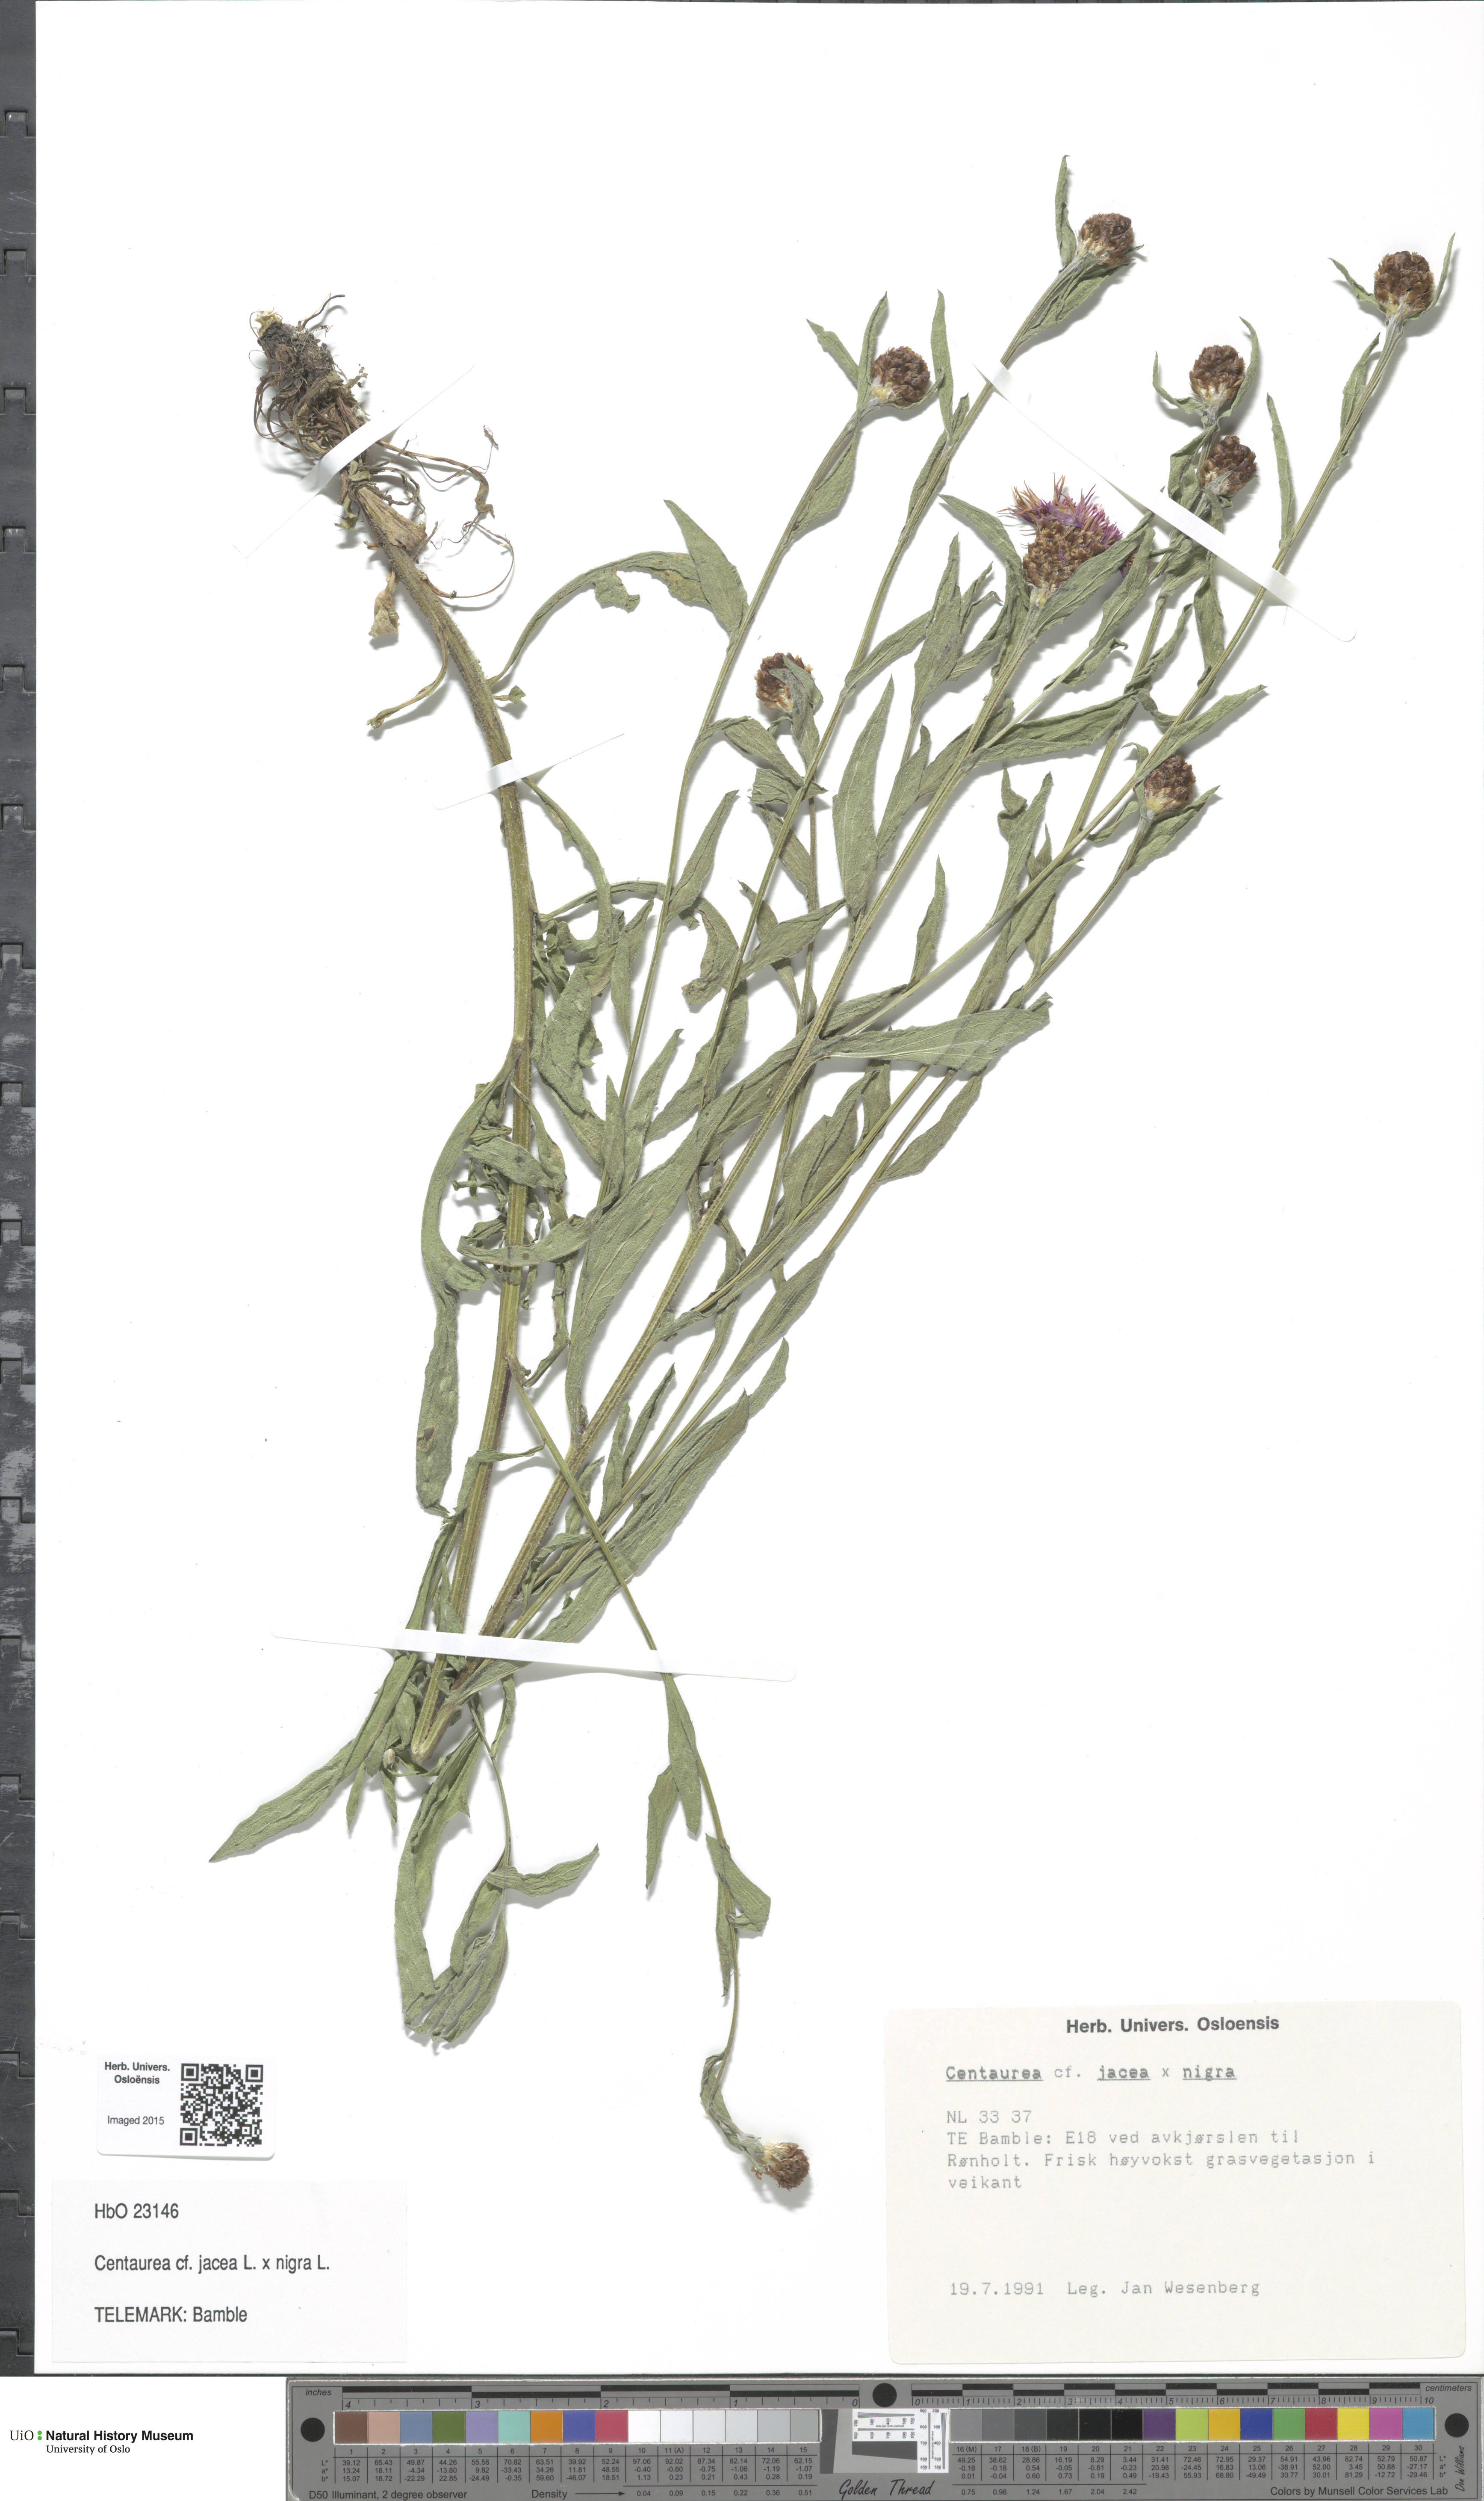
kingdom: Plantae
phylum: Tracheophyta
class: Magnoliopsida
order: Asterales
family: Asteraceae
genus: Centaurea
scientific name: Centaurea
